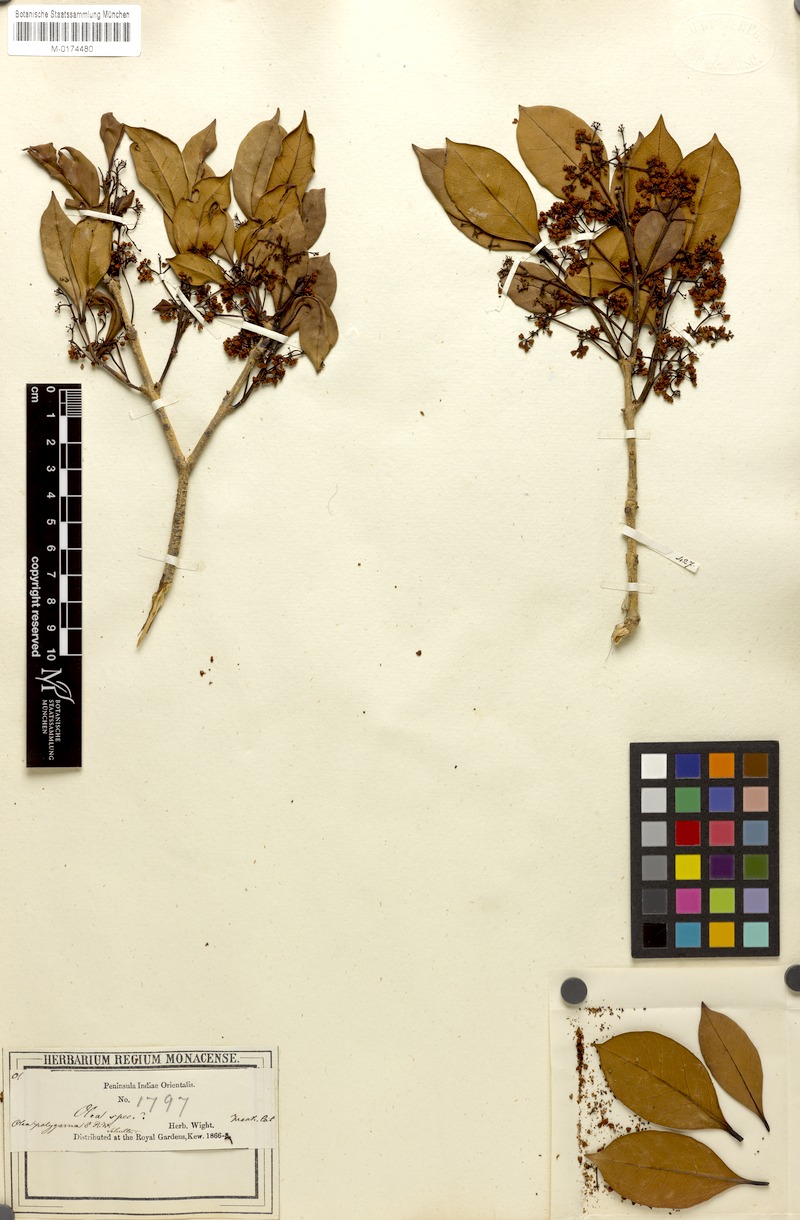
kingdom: Plantae
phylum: Tracheophyta
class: Magnoliopsida
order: Lamiales
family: Oleaceae
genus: Tetrapilus
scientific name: Tetrapilus polygamus
